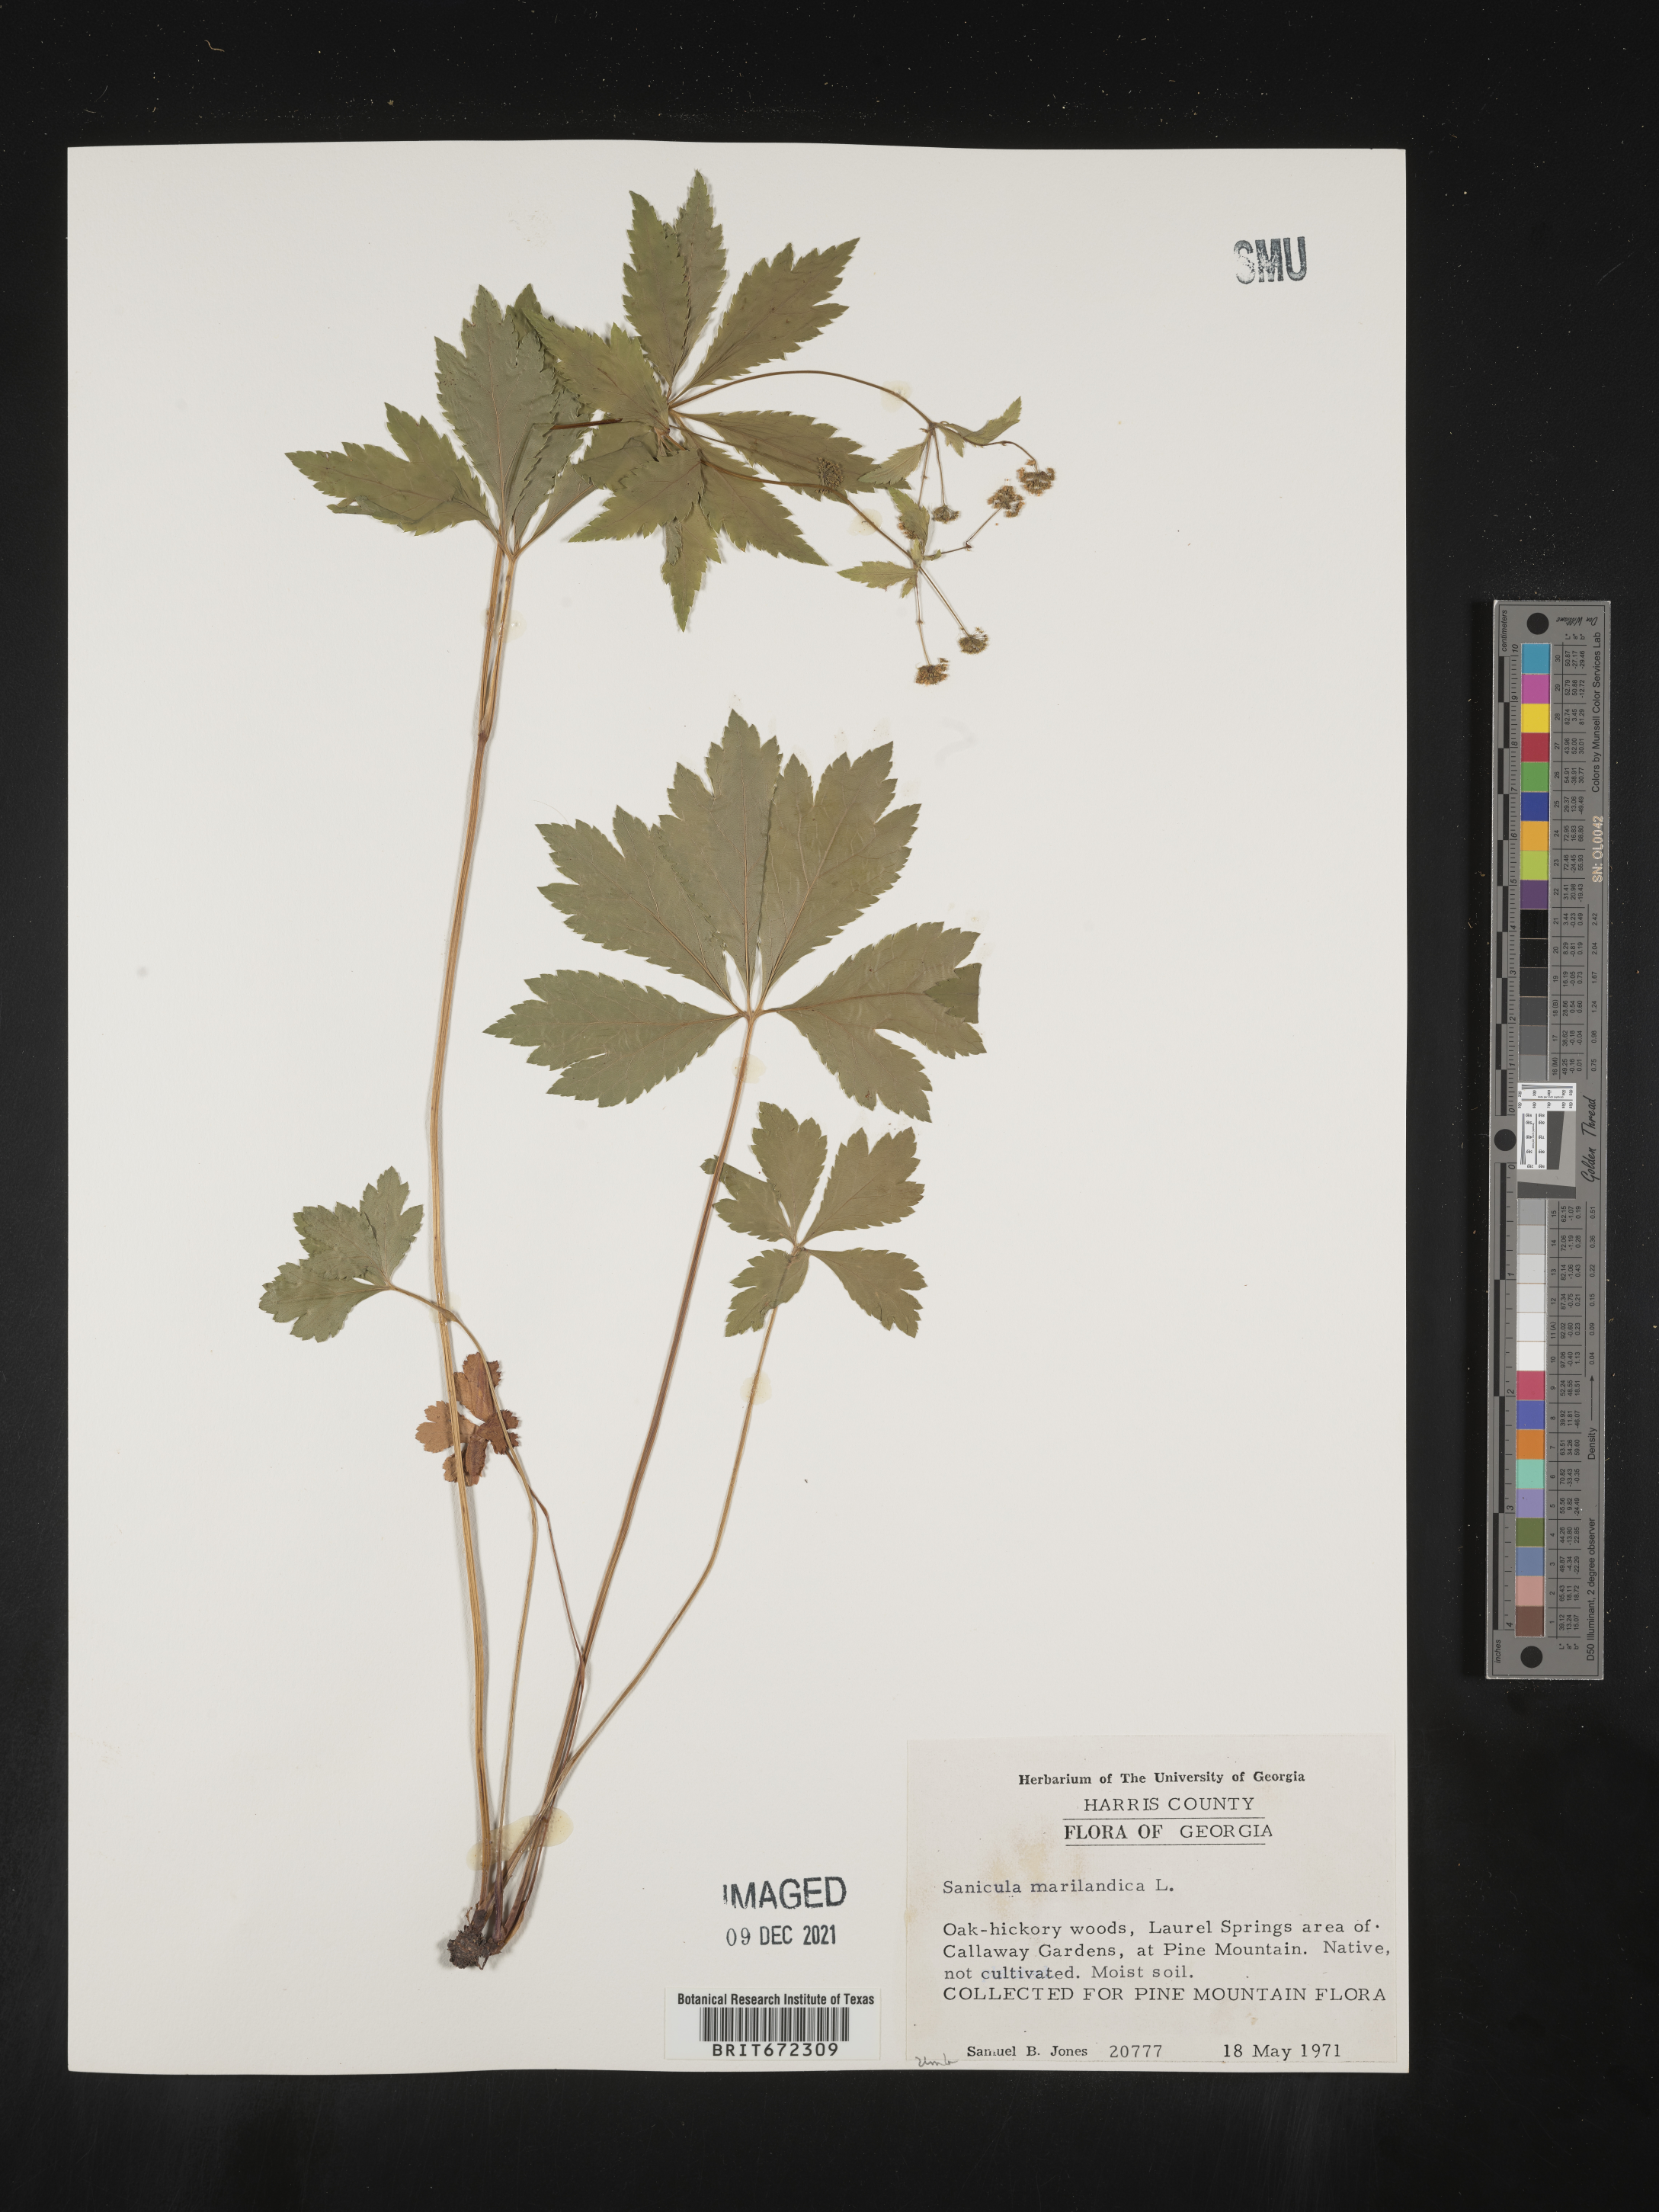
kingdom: Plantae
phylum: Tracheophyta
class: Magnoliopsida
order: Apiales
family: Apiaceae
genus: Sanicula
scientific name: Sanicula marilandica
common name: Black snakeroot
